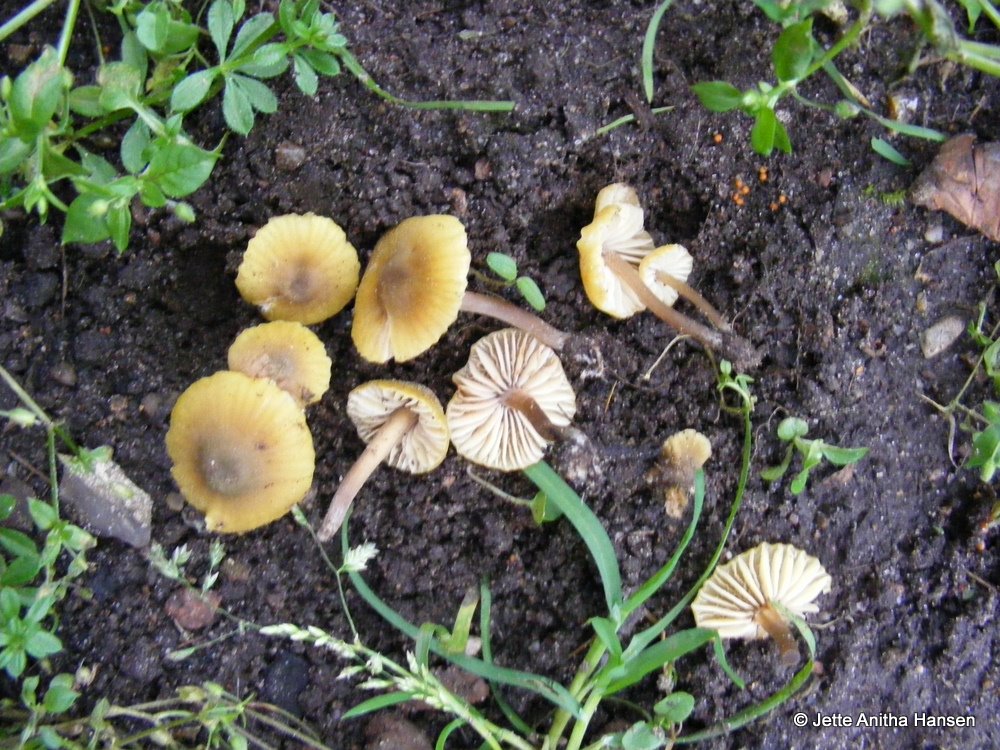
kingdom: Fungi
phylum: Basidiomycota
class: Agaricomycetes
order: Agaricales
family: Entolomataceae
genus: Entoloma
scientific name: Entoloma pleopodium
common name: duftende rødblad
